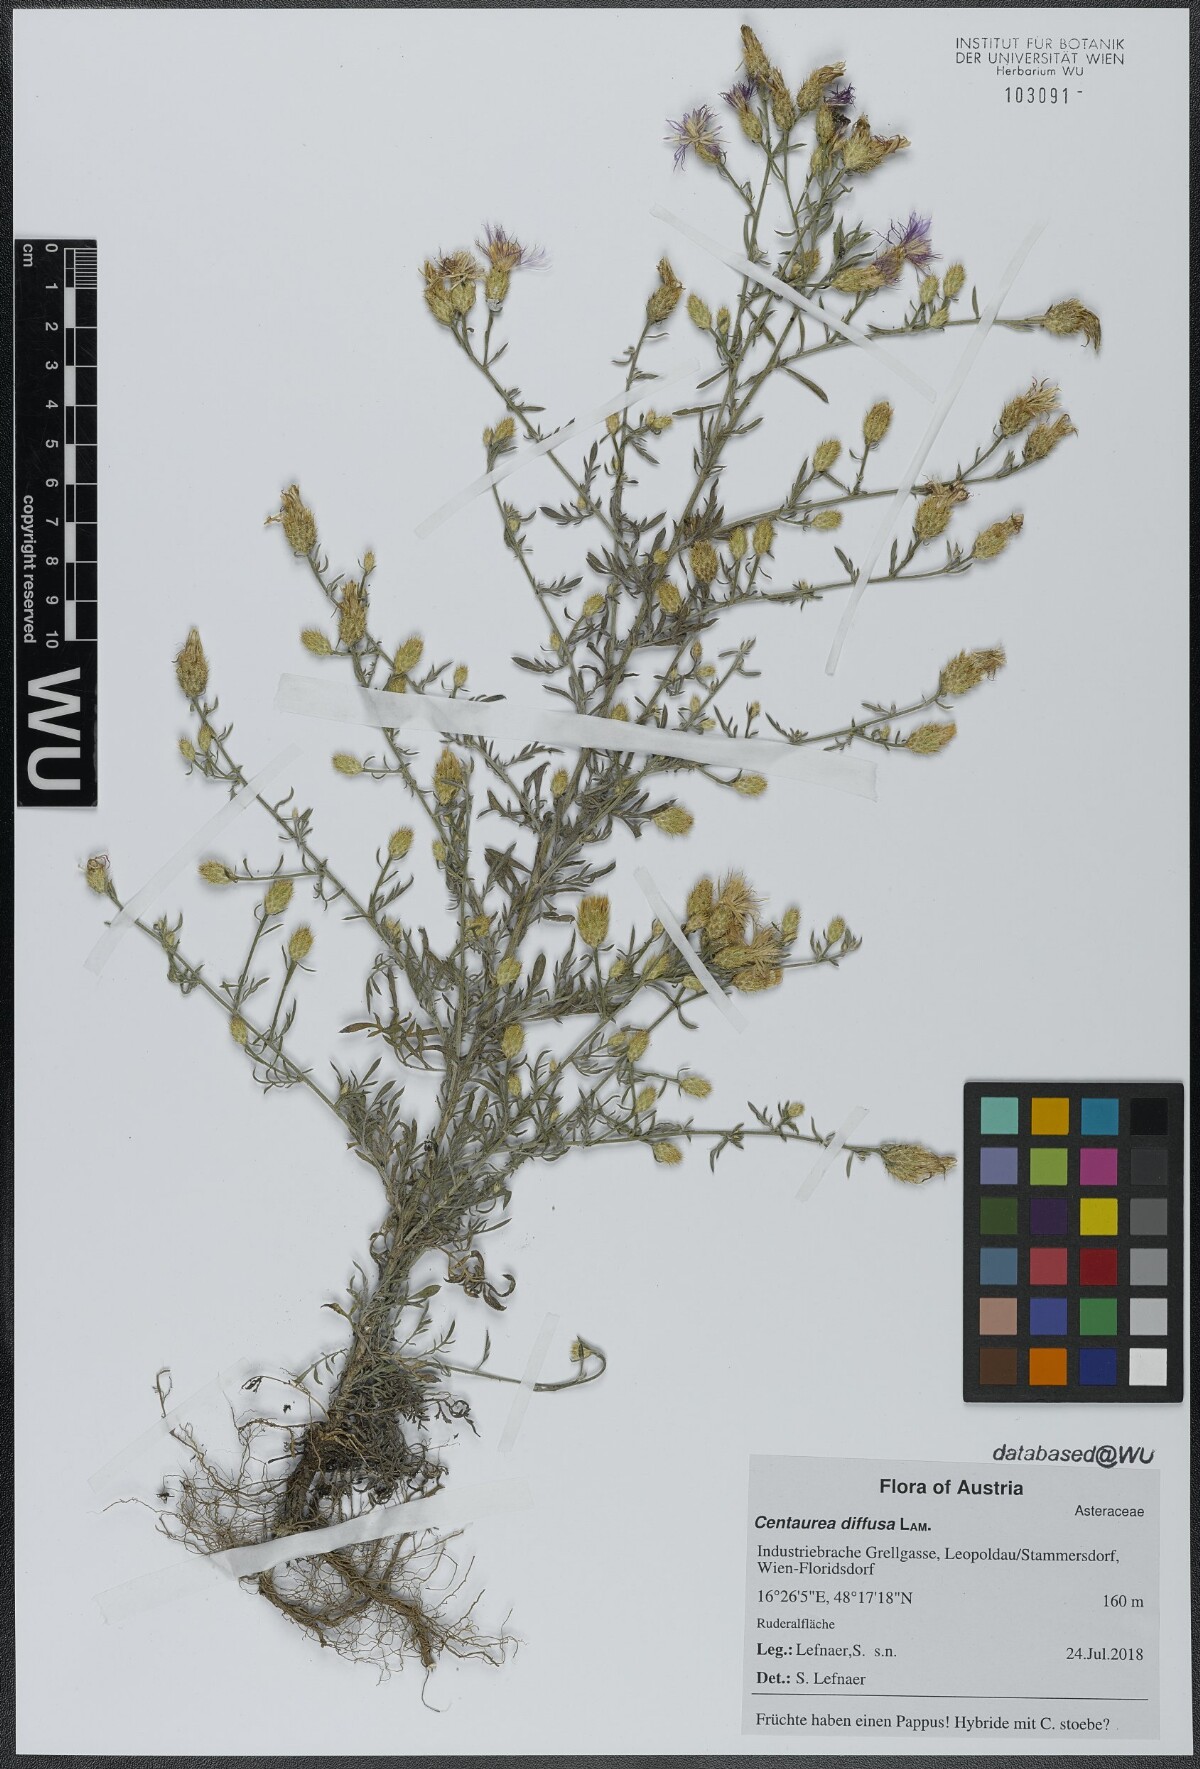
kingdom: Plantae
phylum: Tracheophyta
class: Magnoliopsida
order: Asterales
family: Asteraceae
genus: Centaurea
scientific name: Centaurea diffusa
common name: Diffuse knapweed
